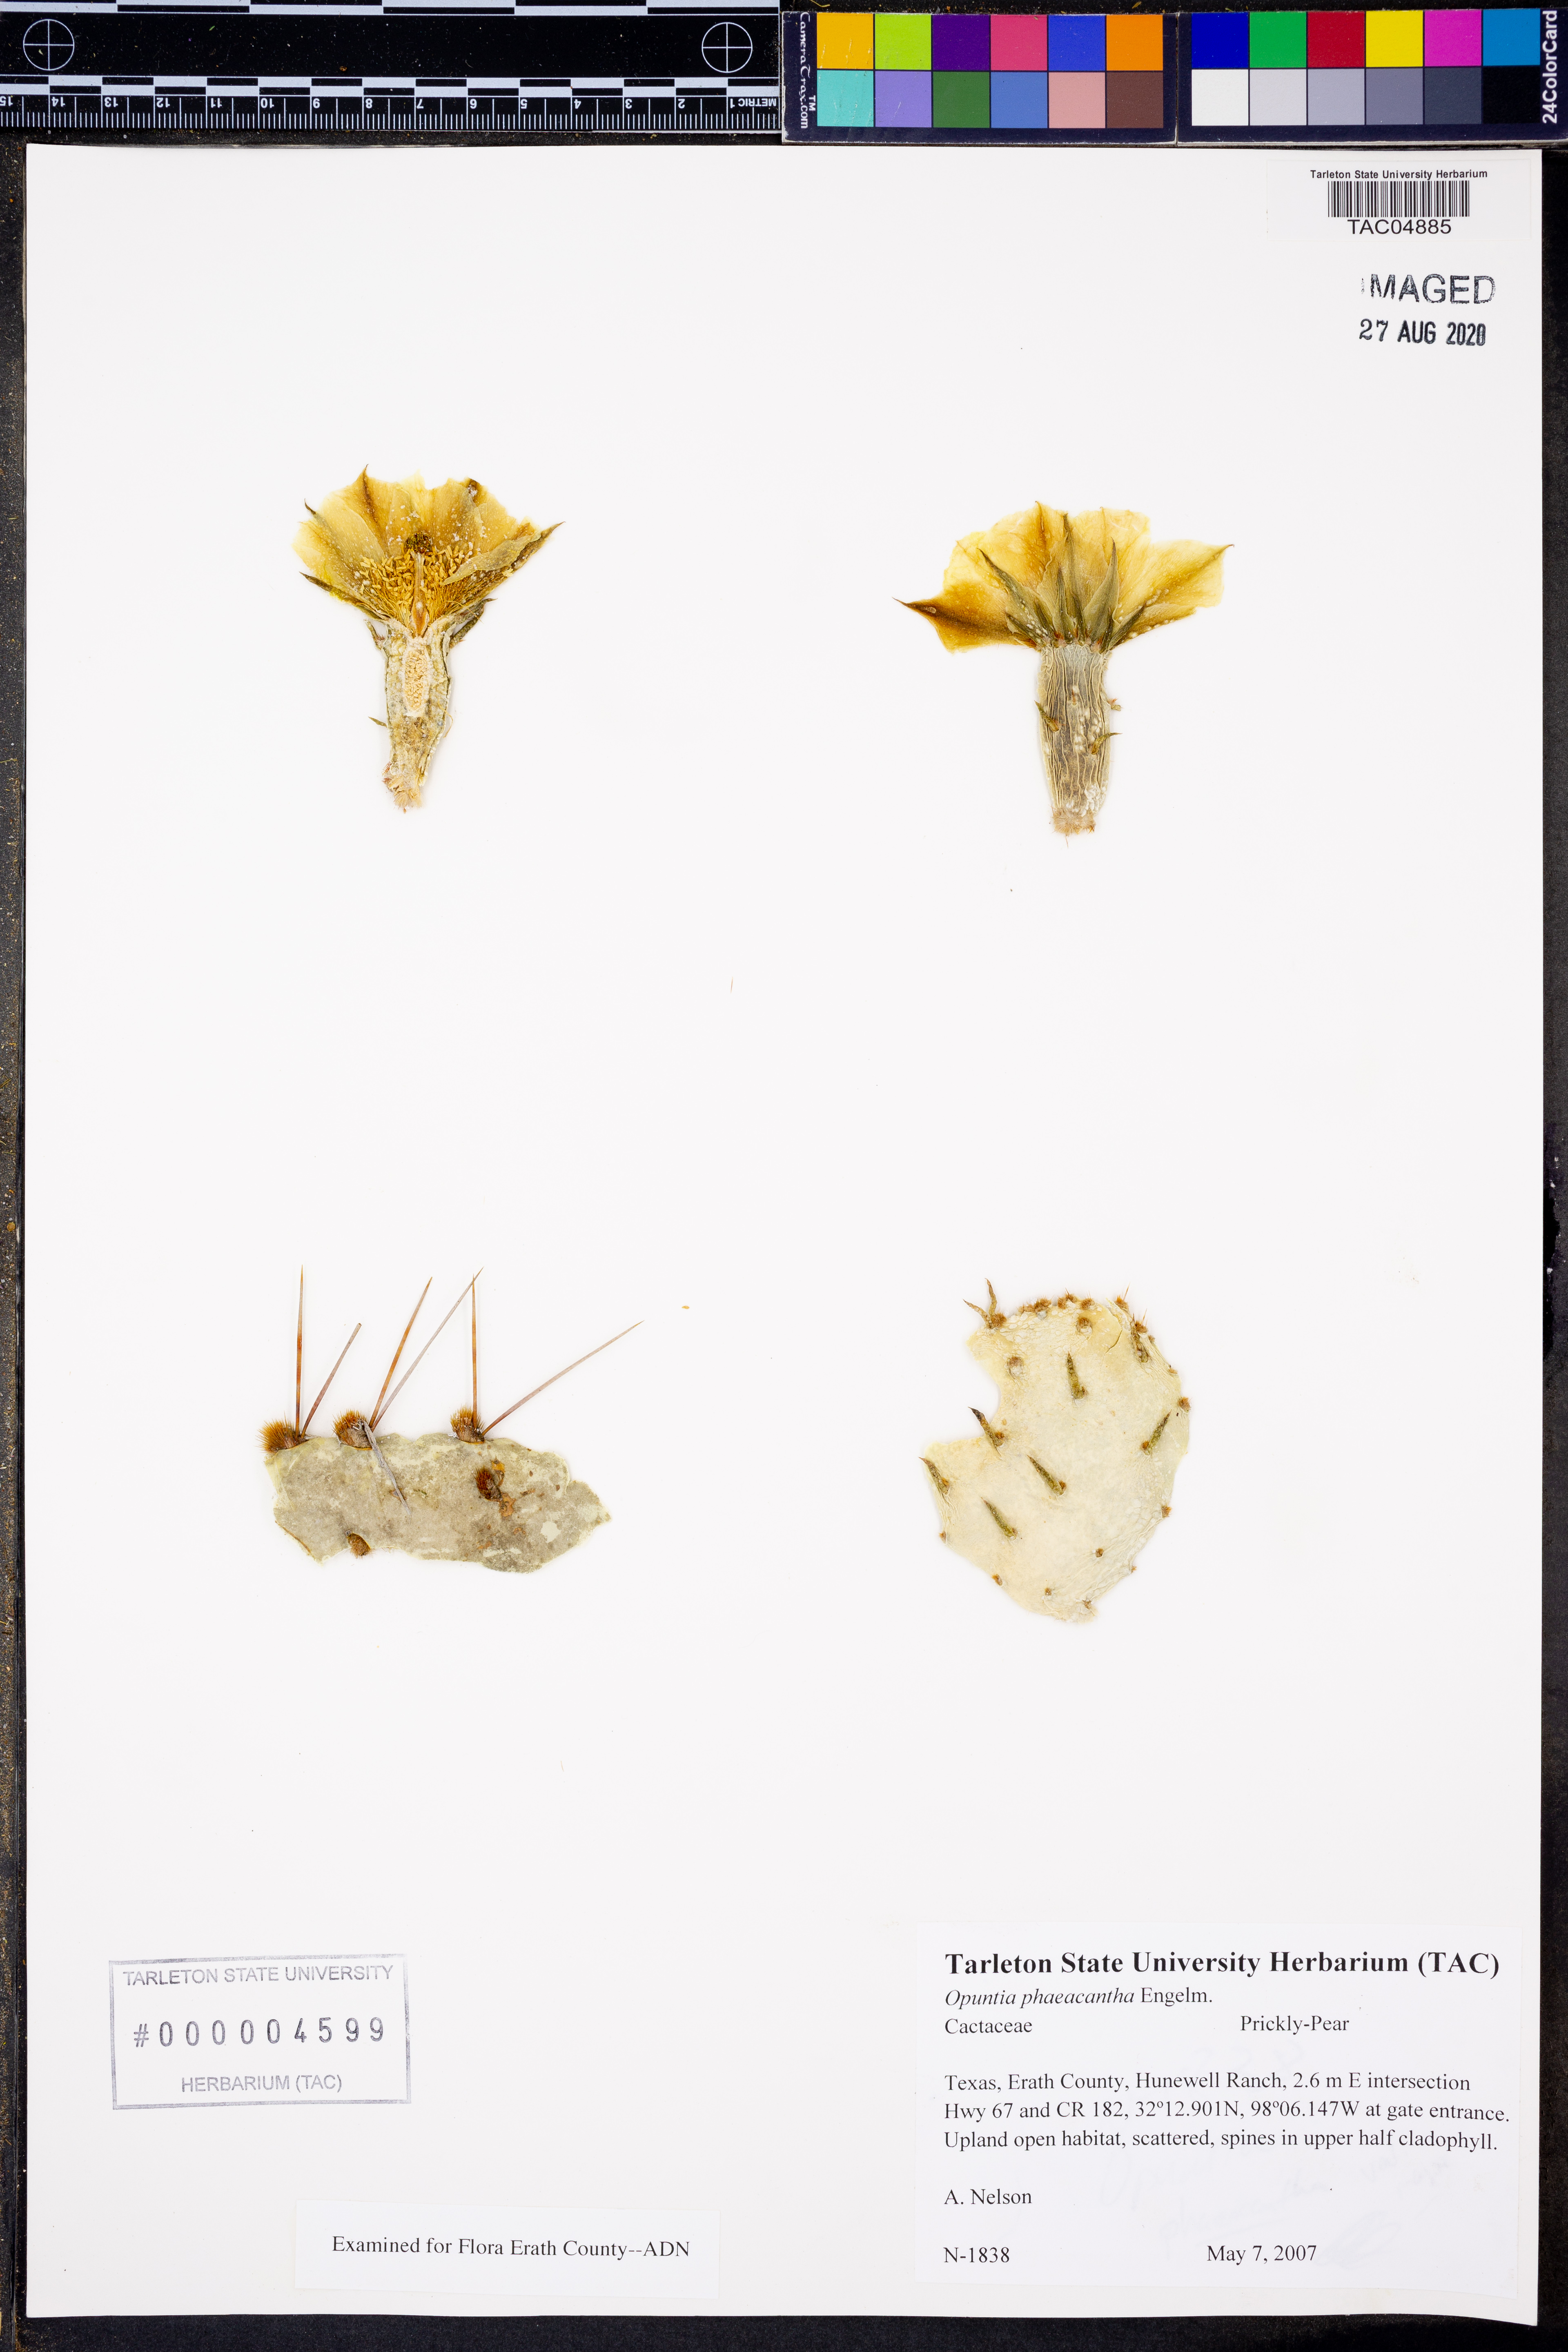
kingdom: Plantae
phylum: Tracheophyta
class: Magnoliopsida
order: Caryophyllales
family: Cactaceae
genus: Opuntia
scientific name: Opuntia phaeacantha
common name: New mexico prickly-pear
